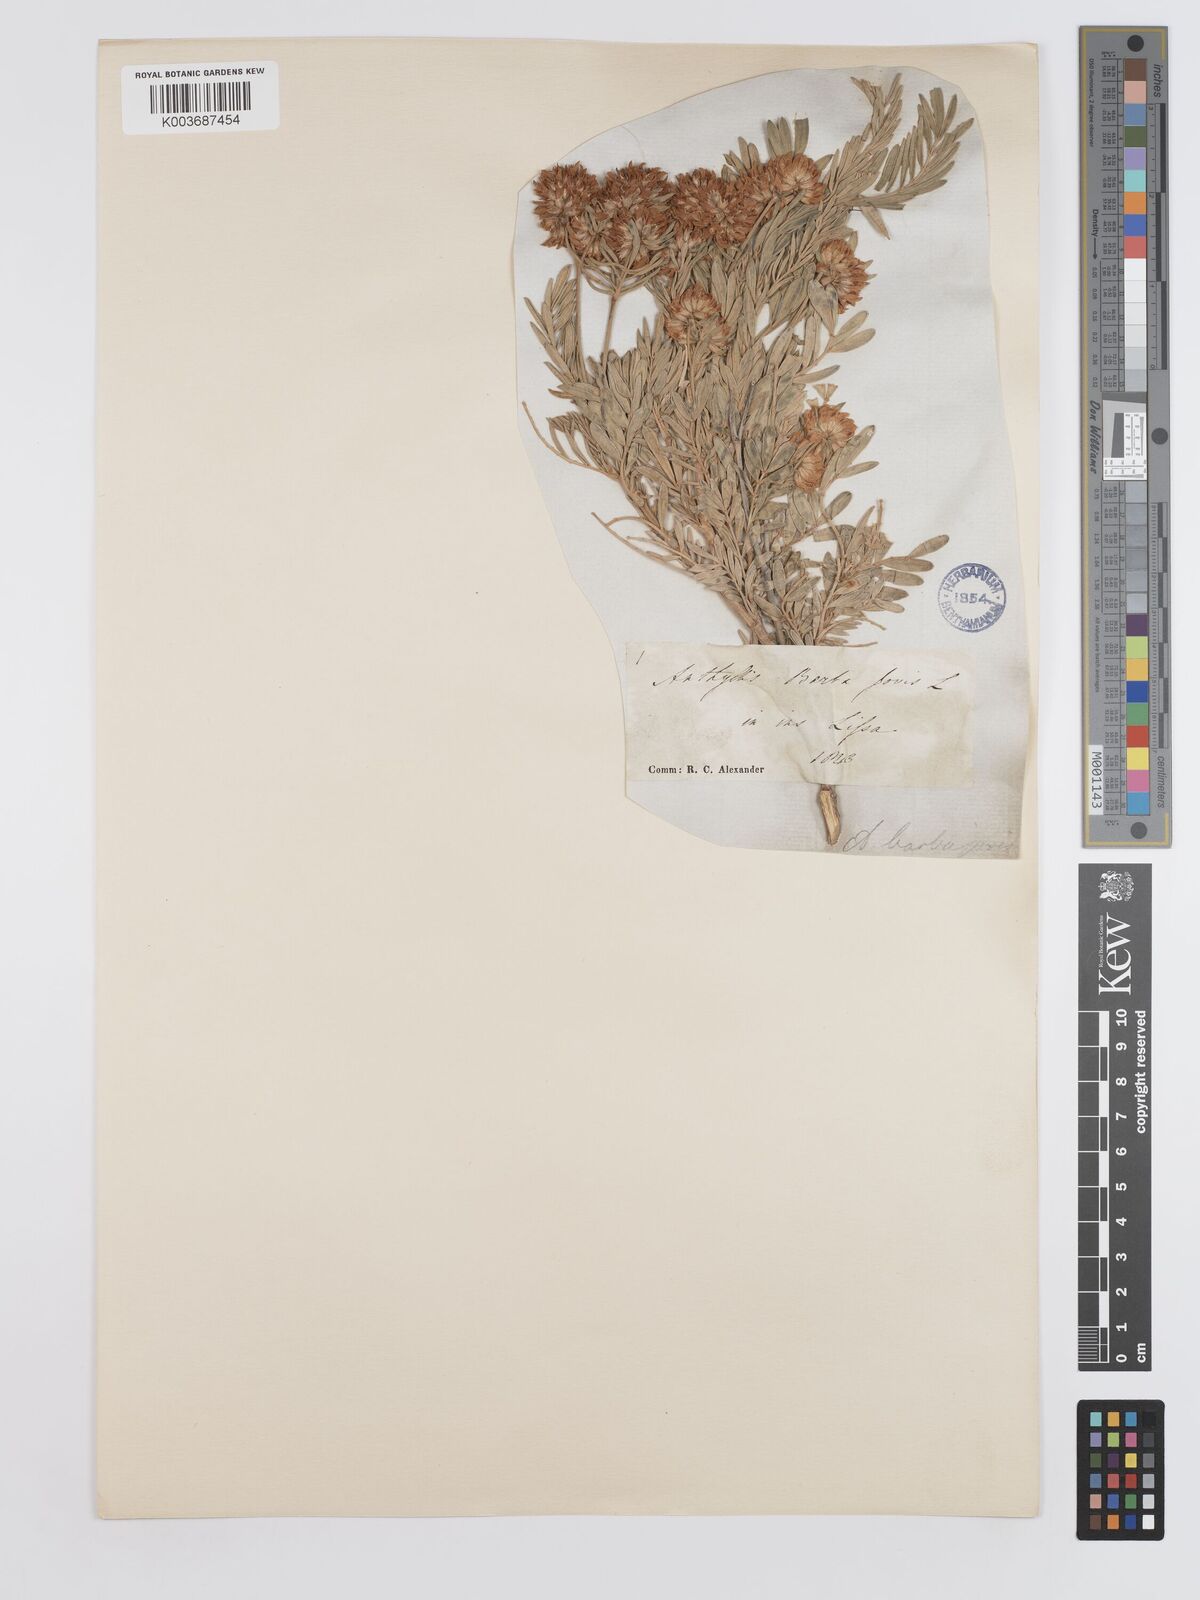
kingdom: Plantae
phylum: Tracheophyta
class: Magnoliopsida
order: Fabales
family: Fabaceae
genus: Anthyllis
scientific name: Anthyllis barba-jovis
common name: Jupiter's-beard
